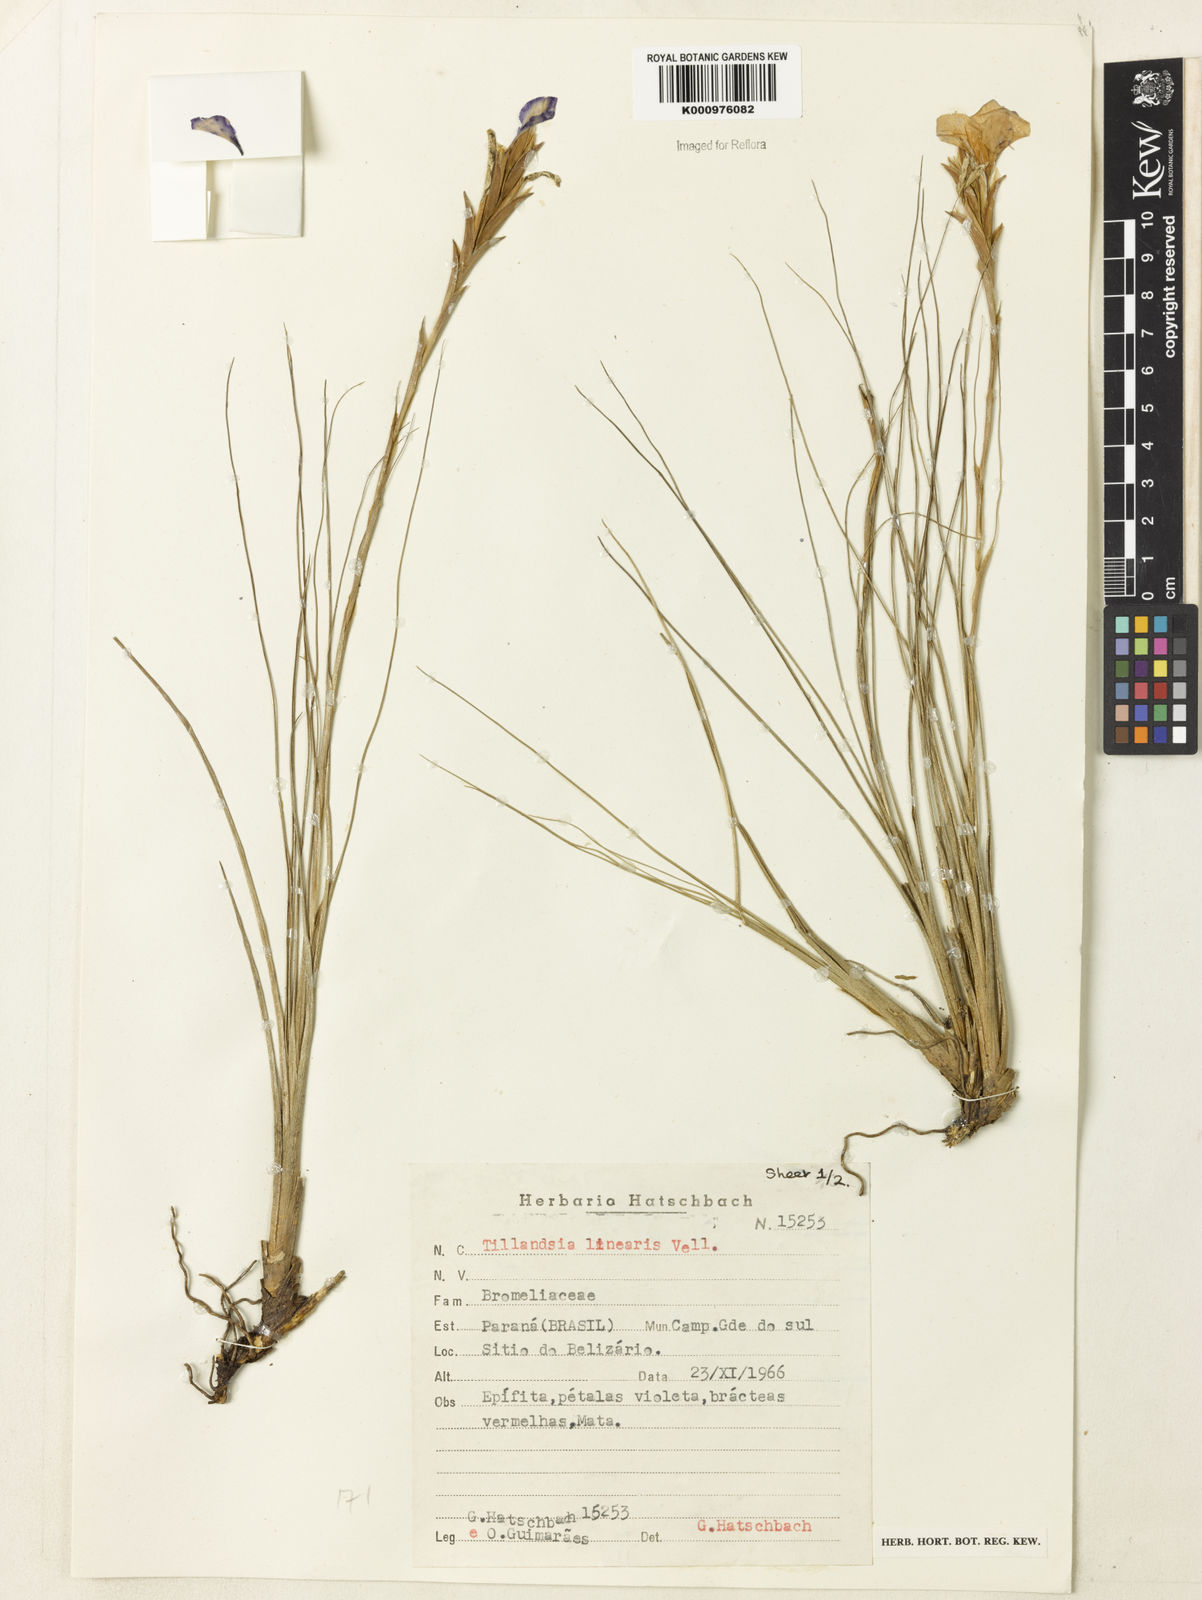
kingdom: Plantae
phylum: Tracheophyta
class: Liliopsida
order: Poales
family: Bromeliaceae
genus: Tillandsia
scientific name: Tillandsia linearis
